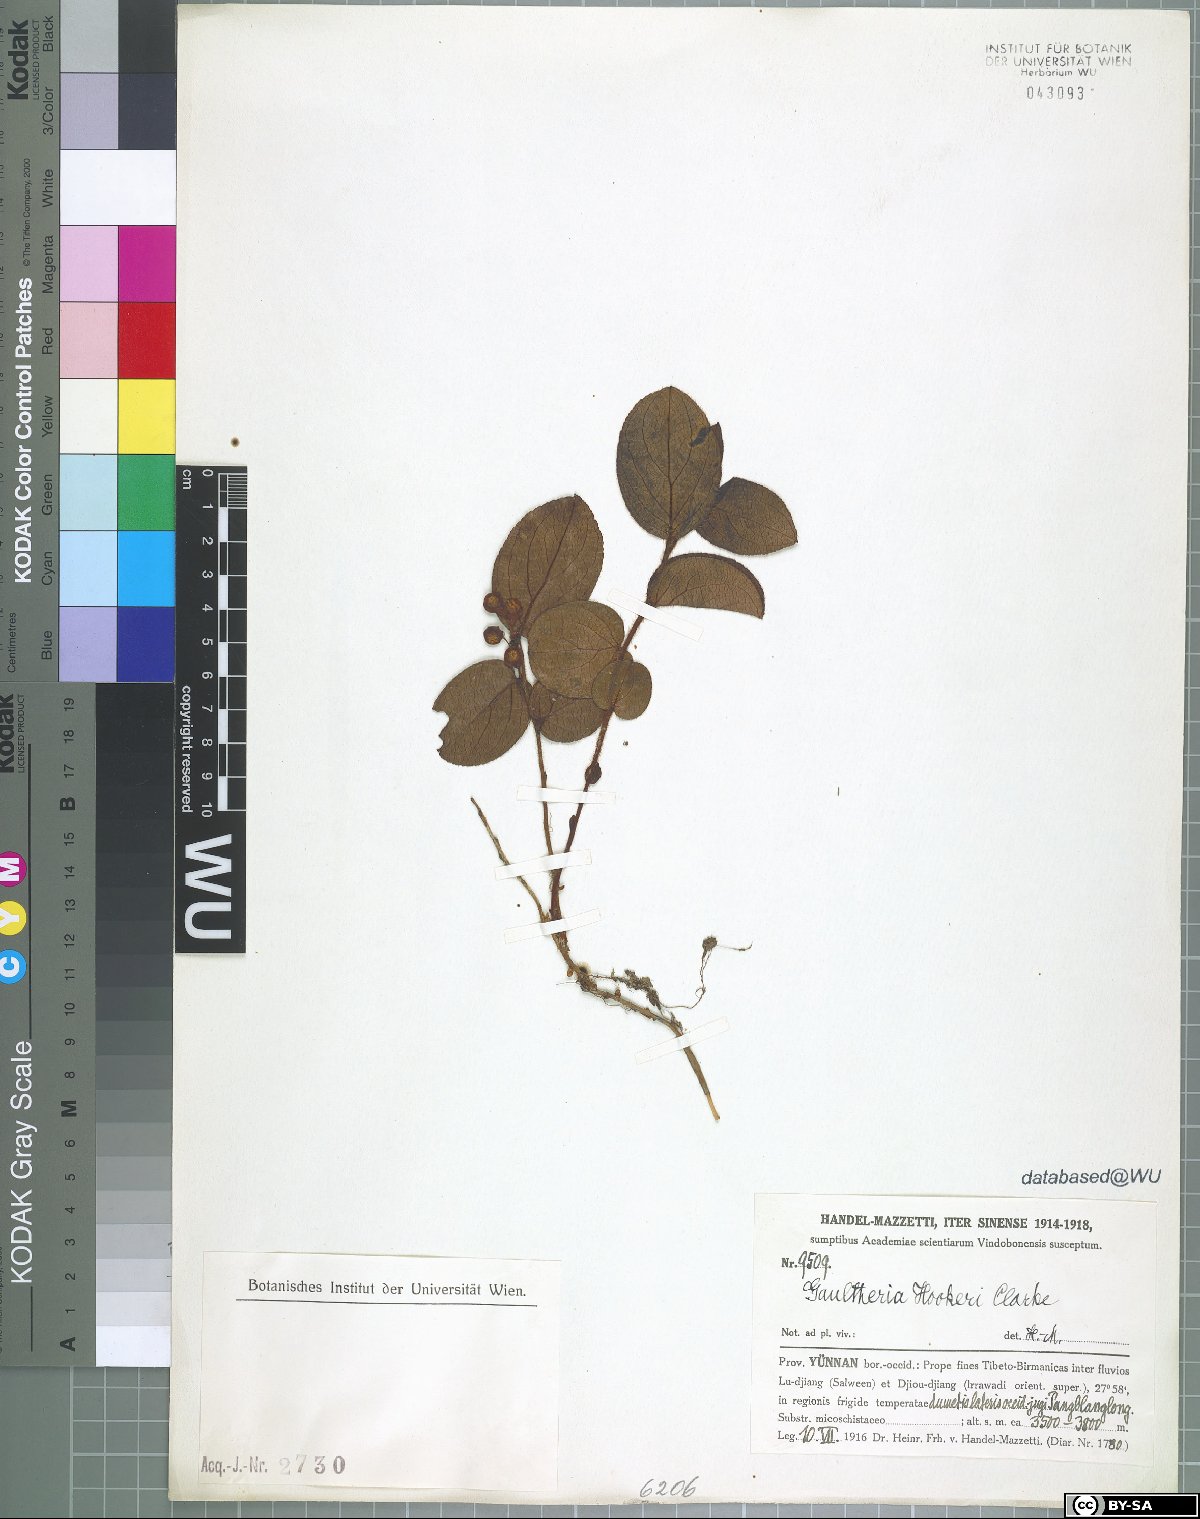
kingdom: Plantae
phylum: Tracheophyta
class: Magnoliopsida
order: Ericales
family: Ericaceae
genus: Gaultheria
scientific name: Gaultheria hookeri
